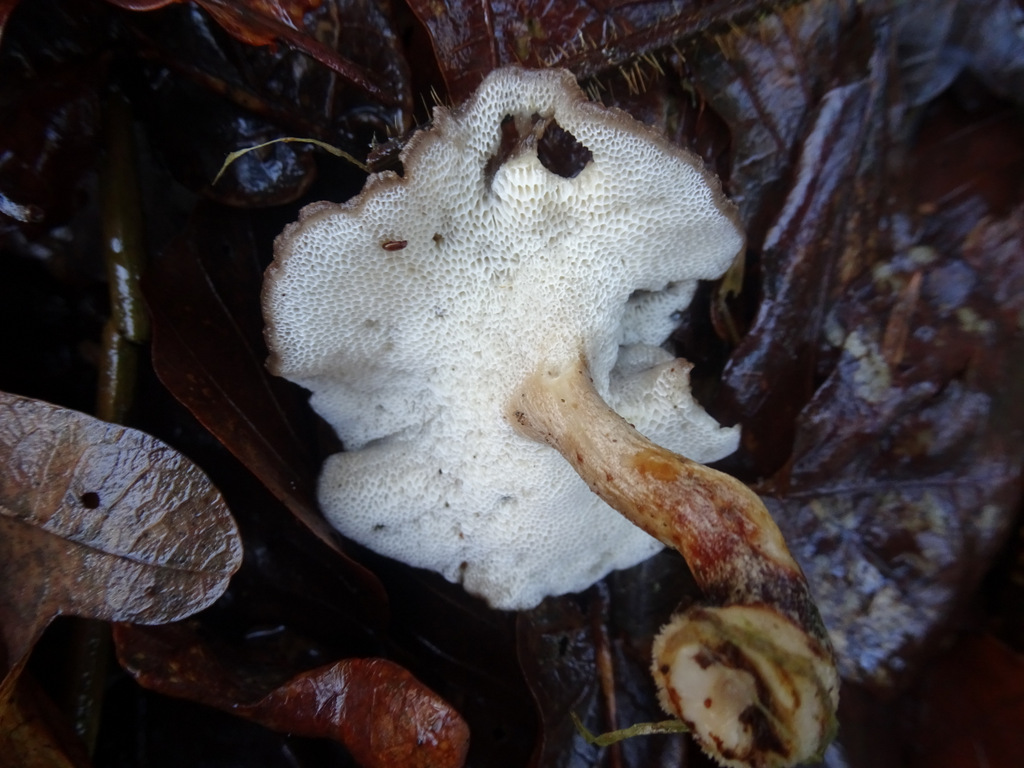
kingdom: Fungi
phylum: Basidiomycota
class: Agaricomycetes
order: Polyporales
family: Polyporaceae
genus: Lentinus
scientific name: Lentinus brumalis
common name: vinter-stilkporesvamp
